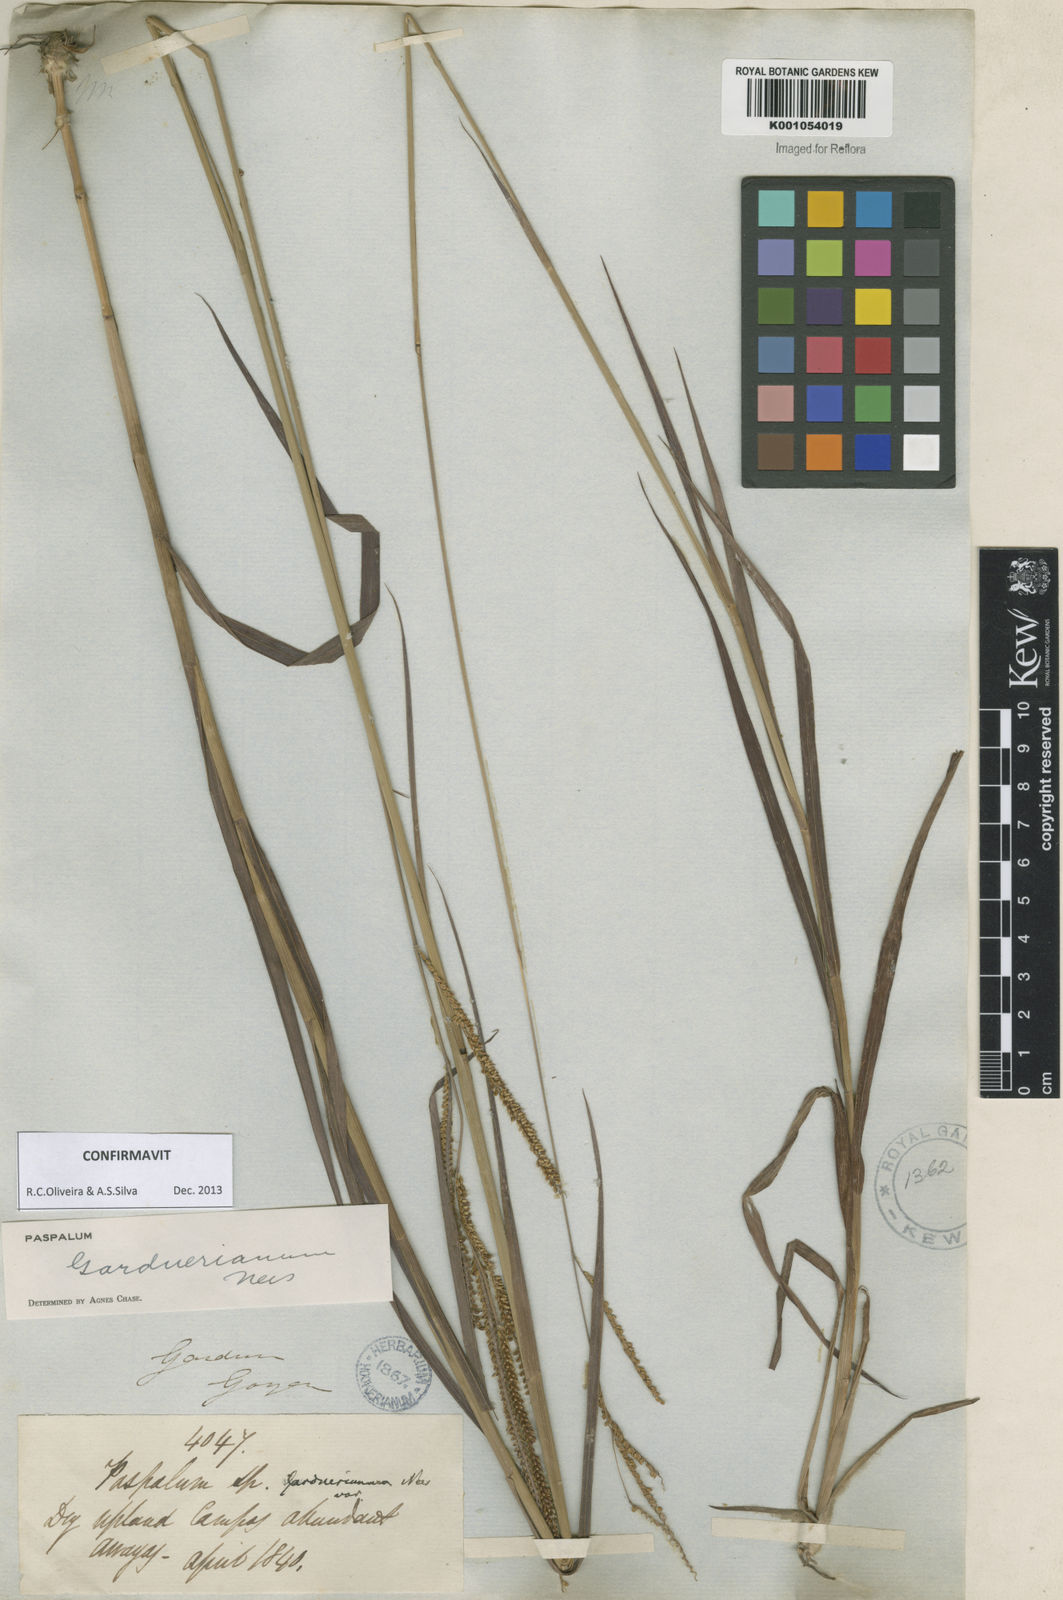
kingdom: Plantae
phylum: Tracheophyta
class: Liliopsida
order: Poales
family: Poaceae
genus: Paspalum
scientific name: Paspalum gardnerianum
